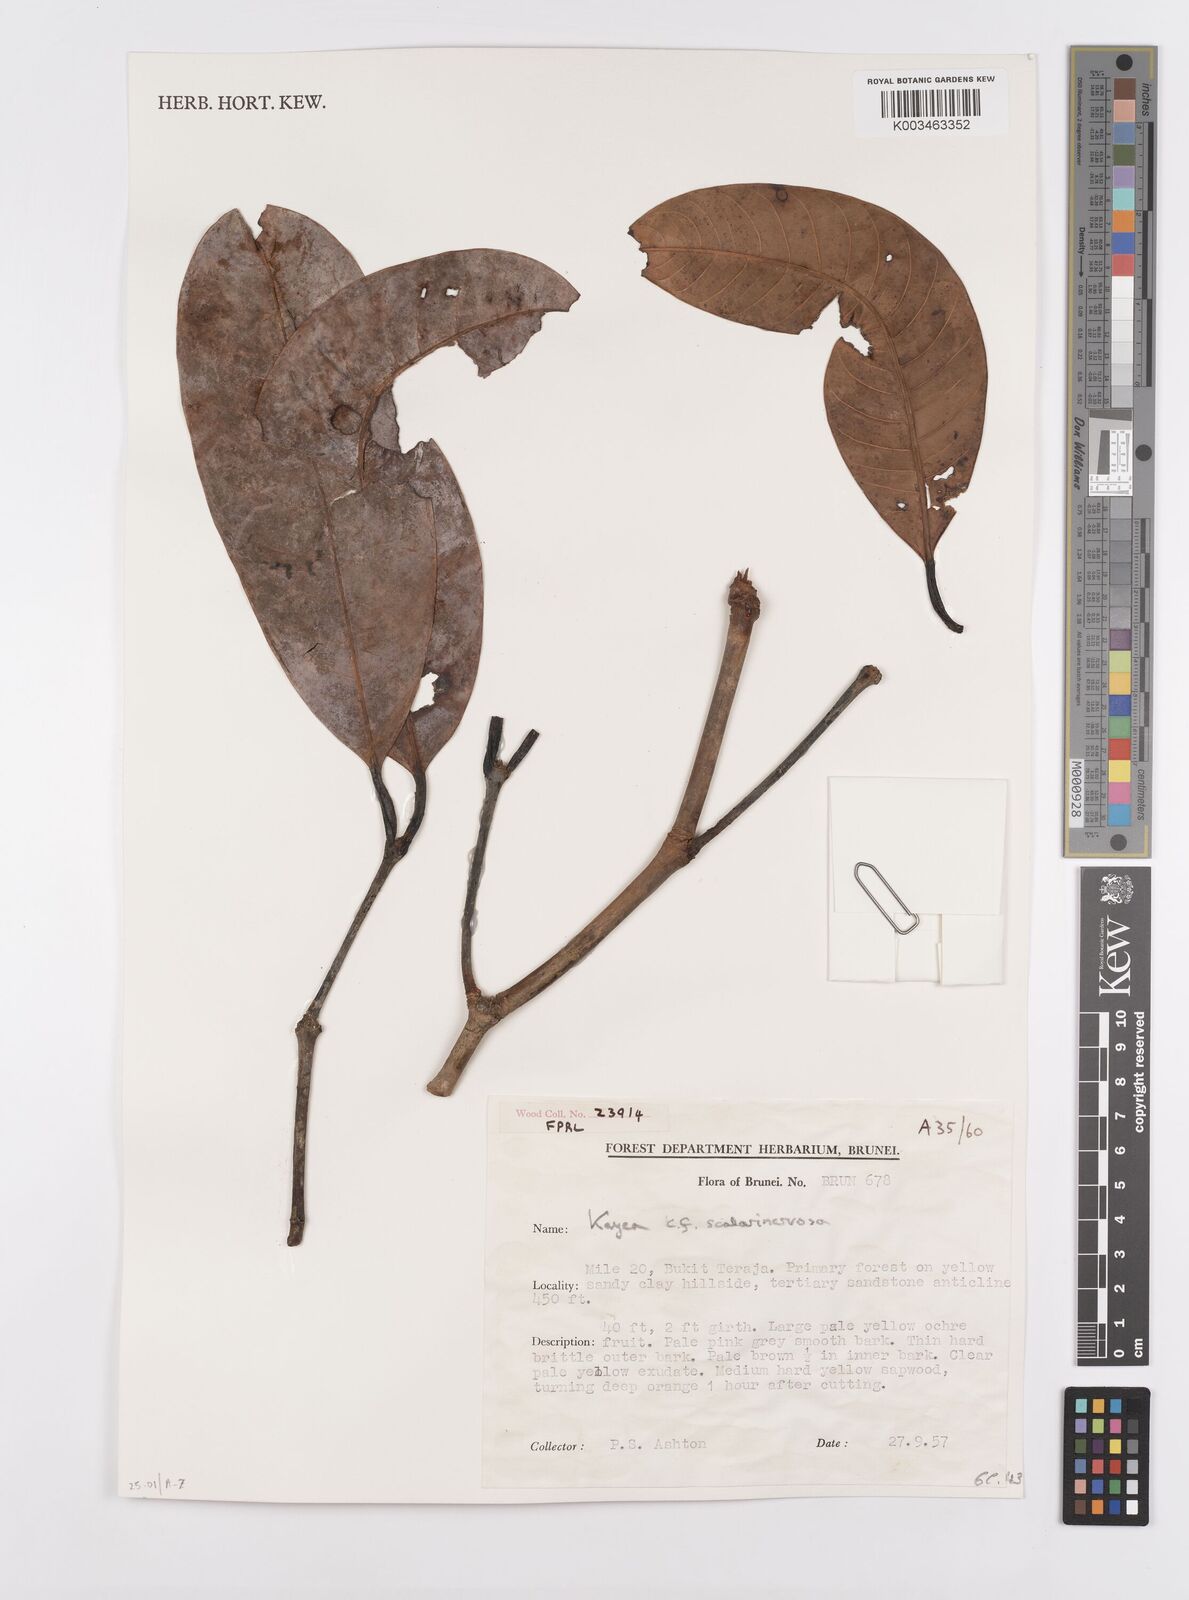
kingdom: Plantae
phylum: Tracheophyta
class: Magnoliopsida
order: Malpighiales
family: Calophyllaceae
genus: Kayea
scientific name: Kayea scalarinervosa
